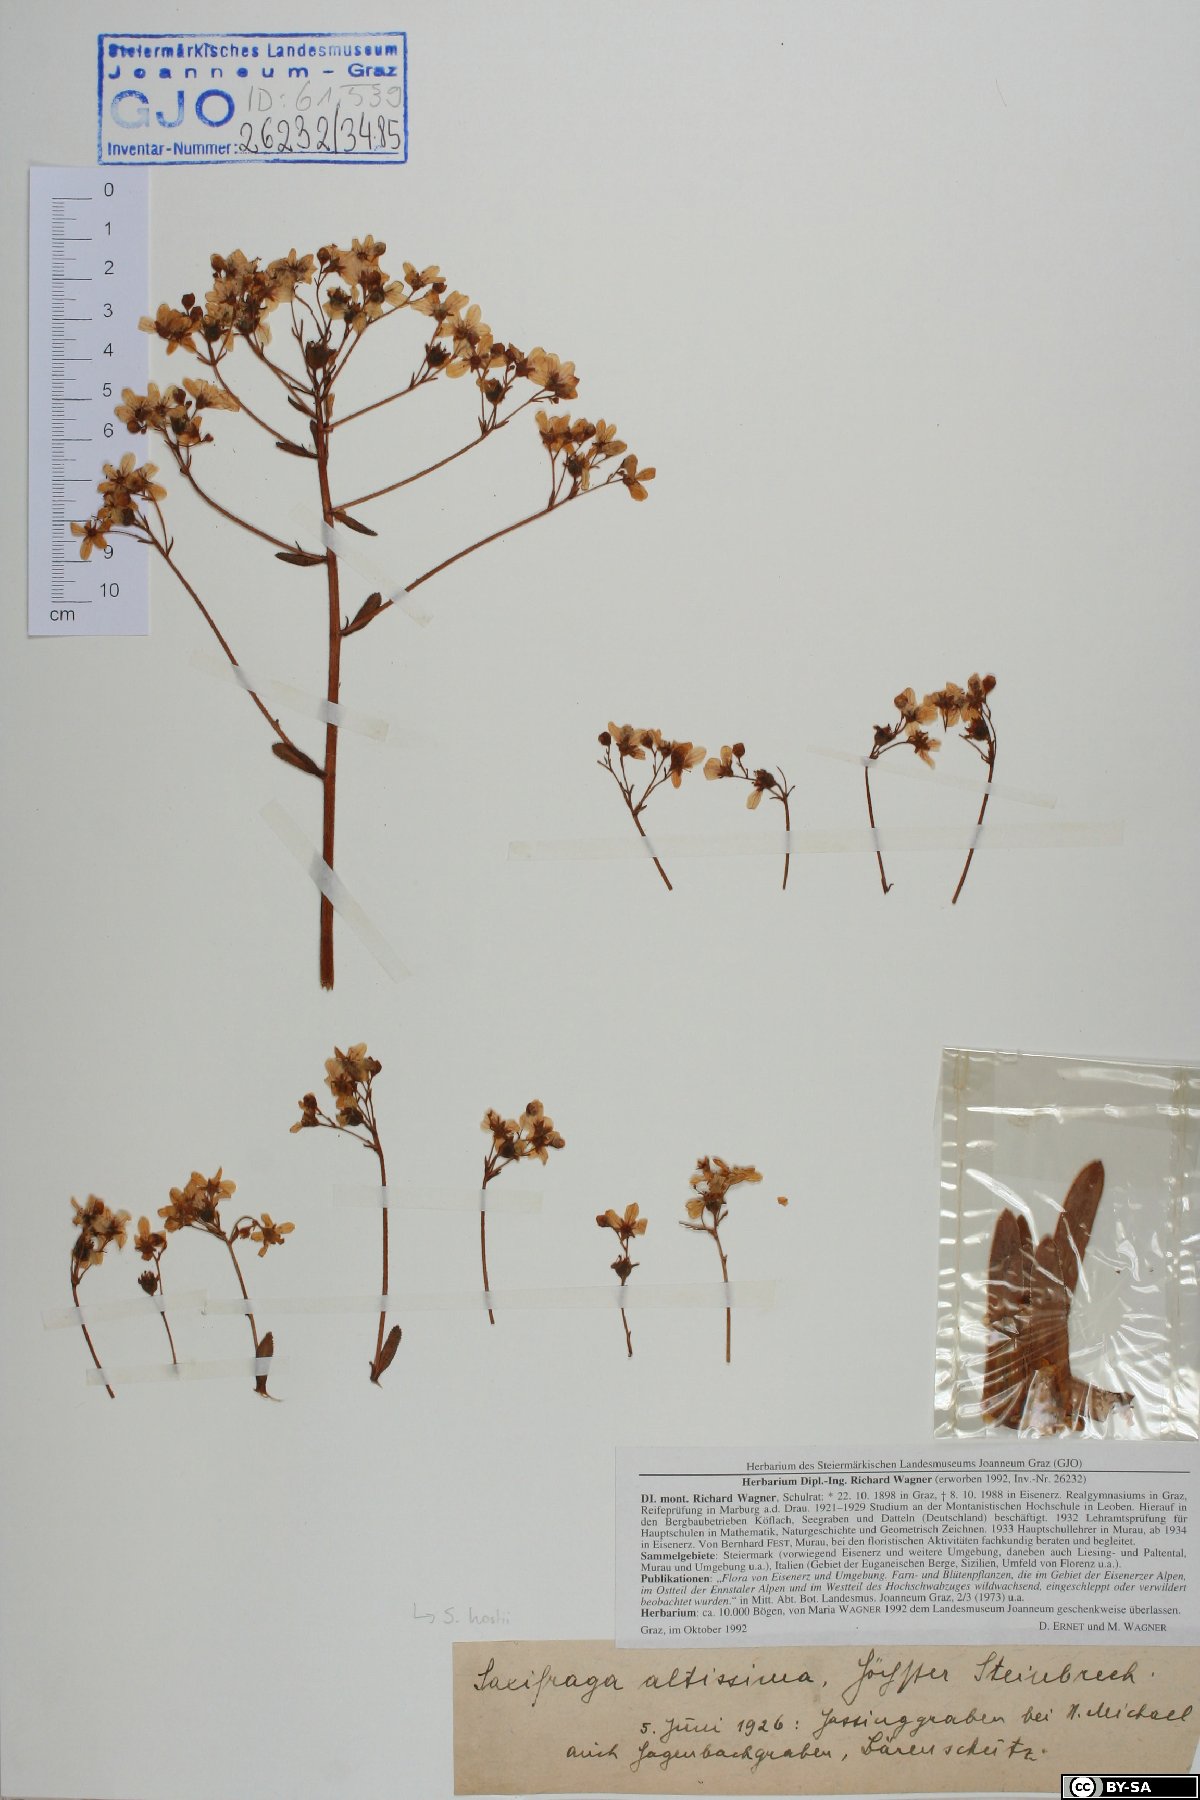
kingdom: Plantae
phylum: Tracheophyta
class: Magnoliopsida
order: Saxifragales
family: Saxifragaceae
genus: Saxifraga
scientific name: Saxifraga hostii
